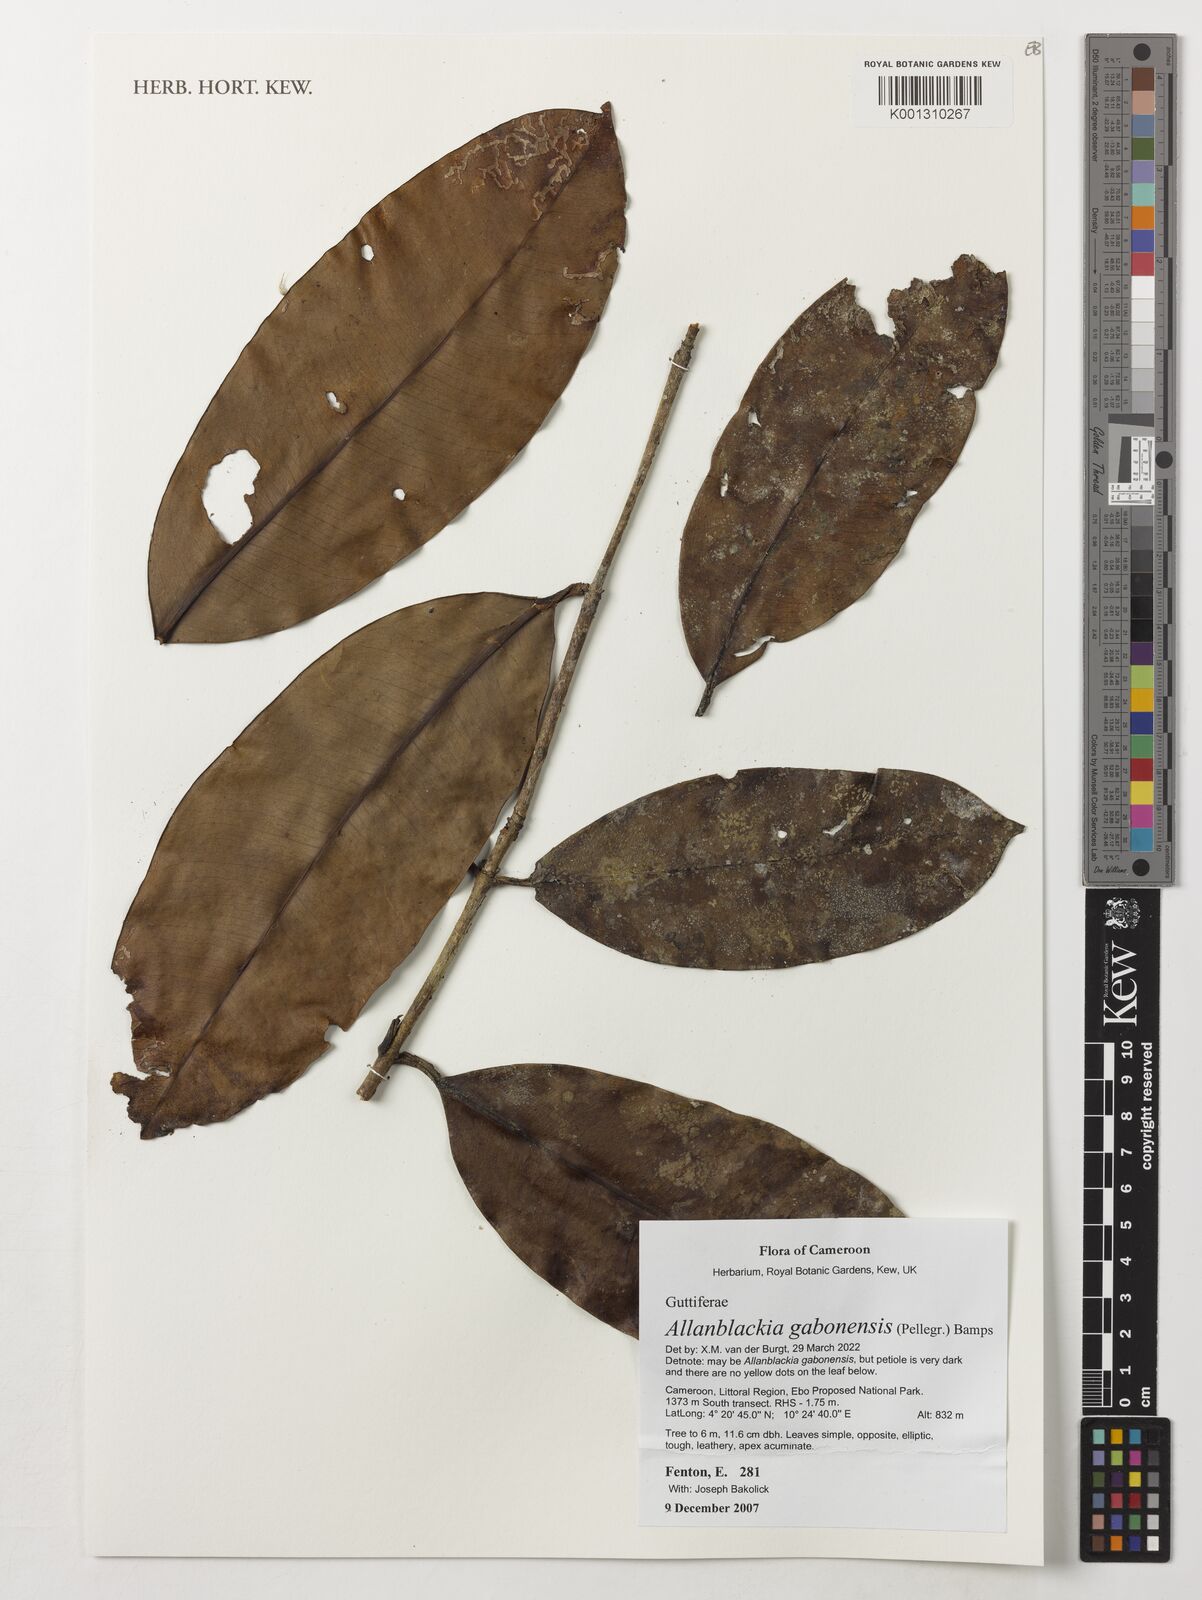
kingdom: Plantae
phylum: Tracheophyta
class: Magnoliopsida
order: Malpighiales
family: Clusiaceae
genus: Allanblackia
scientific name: Allanblackia gabonensis
